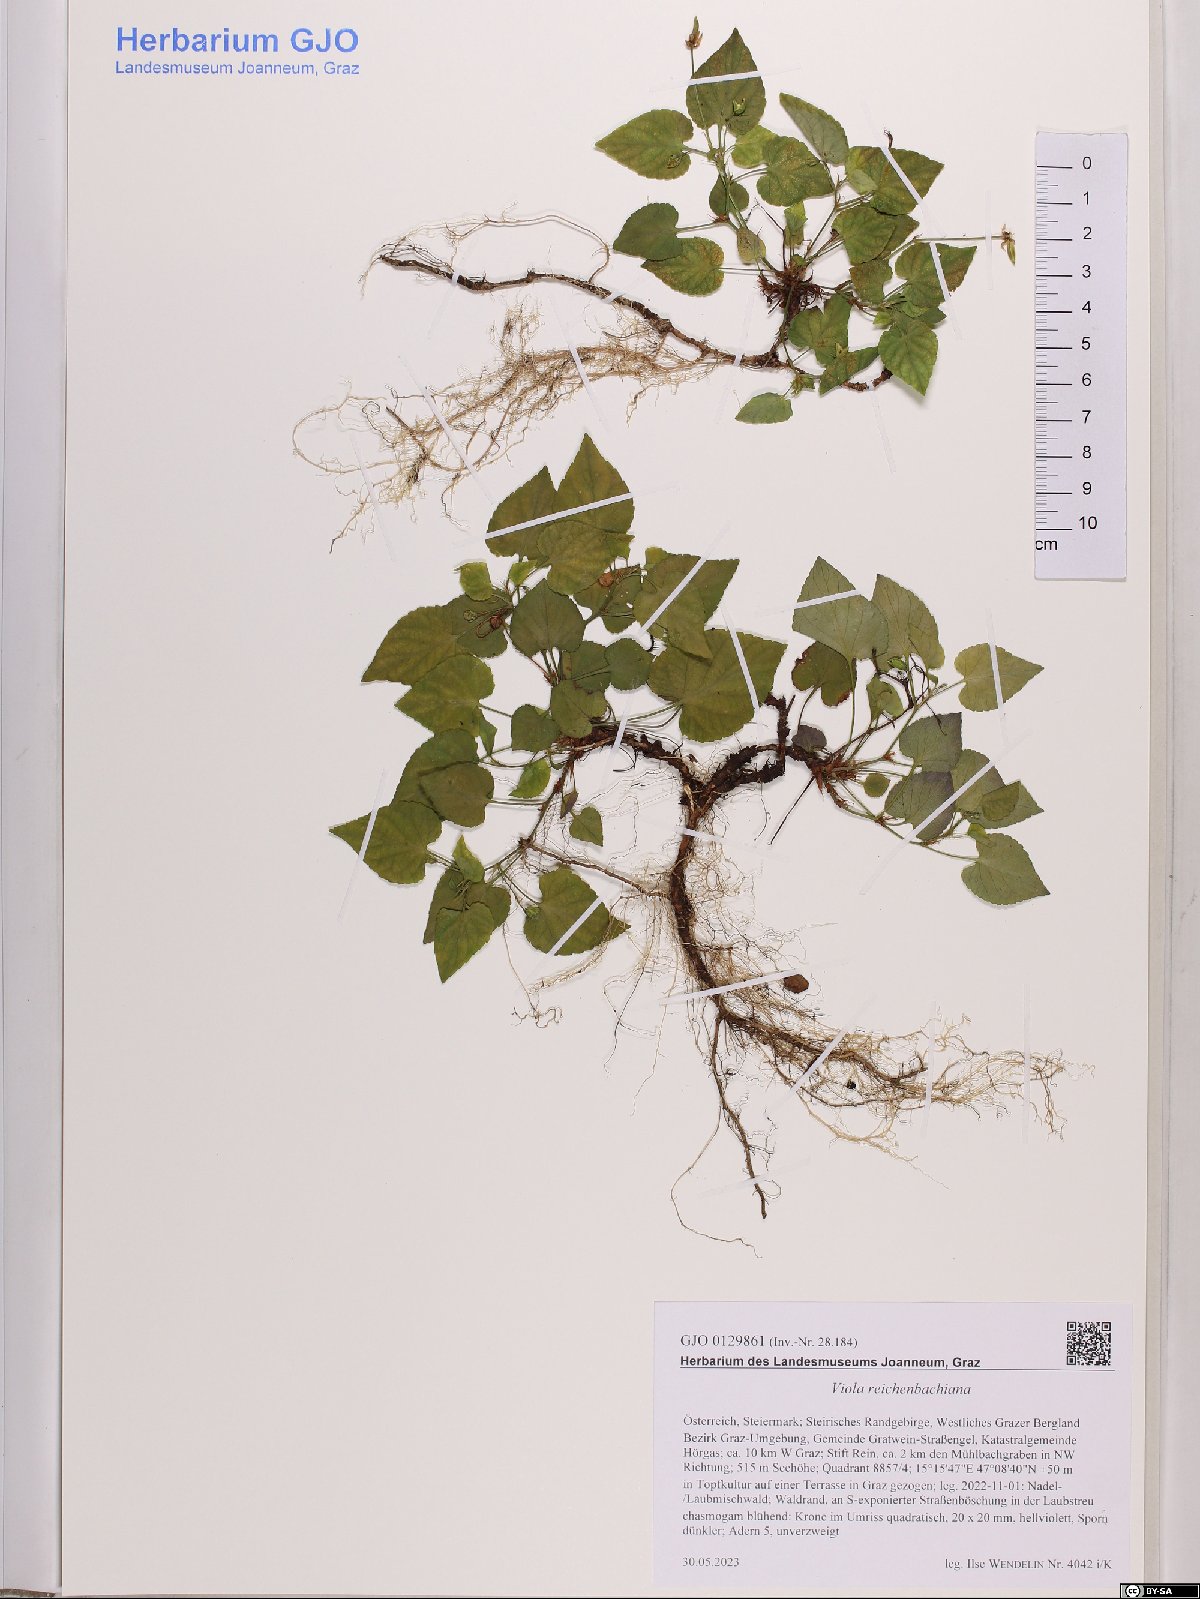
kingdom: Plantae
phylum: Tracheophyta
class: Magnoliopsida
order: Malpighiales
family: Violaceae
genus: Viola
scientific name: Viola reichenbachiana
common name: Early dog-violet
